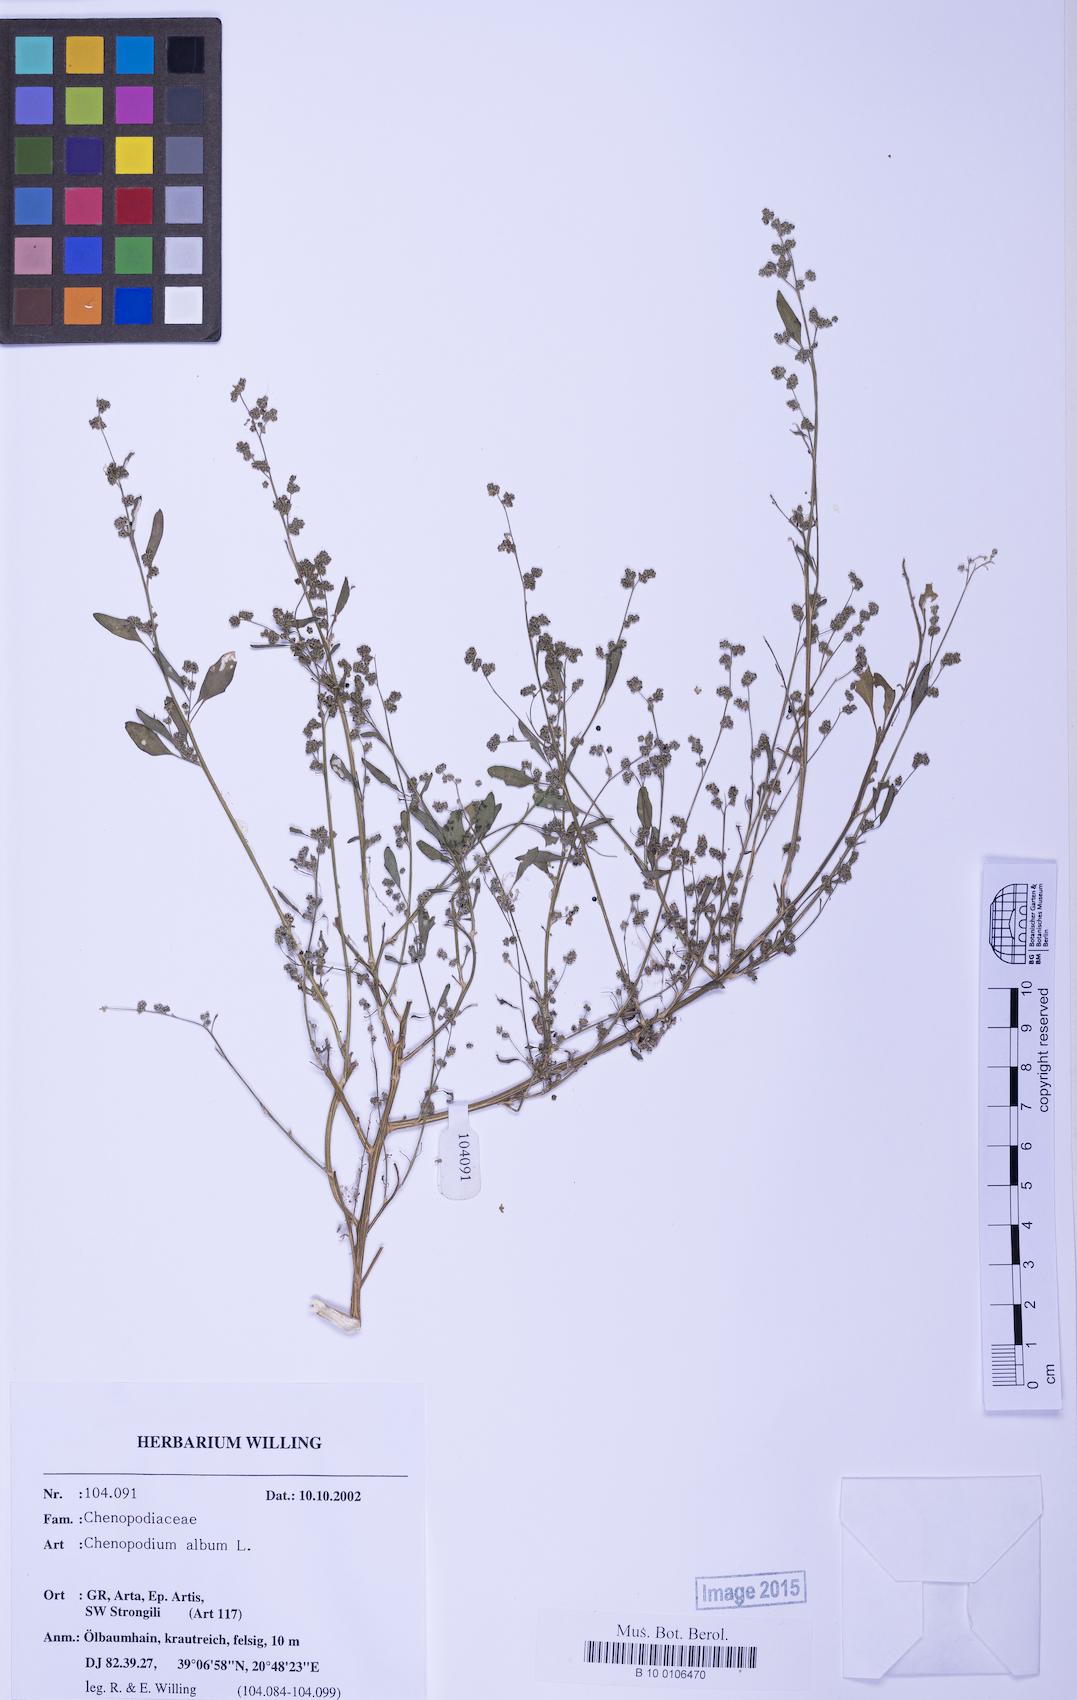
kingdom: Plantae
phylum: Tracheophyta
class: Magnoliopsida
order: Caryophyllales
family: Amaranthaceae
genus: Chenopodium
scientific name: Chenopodium striatiforme
